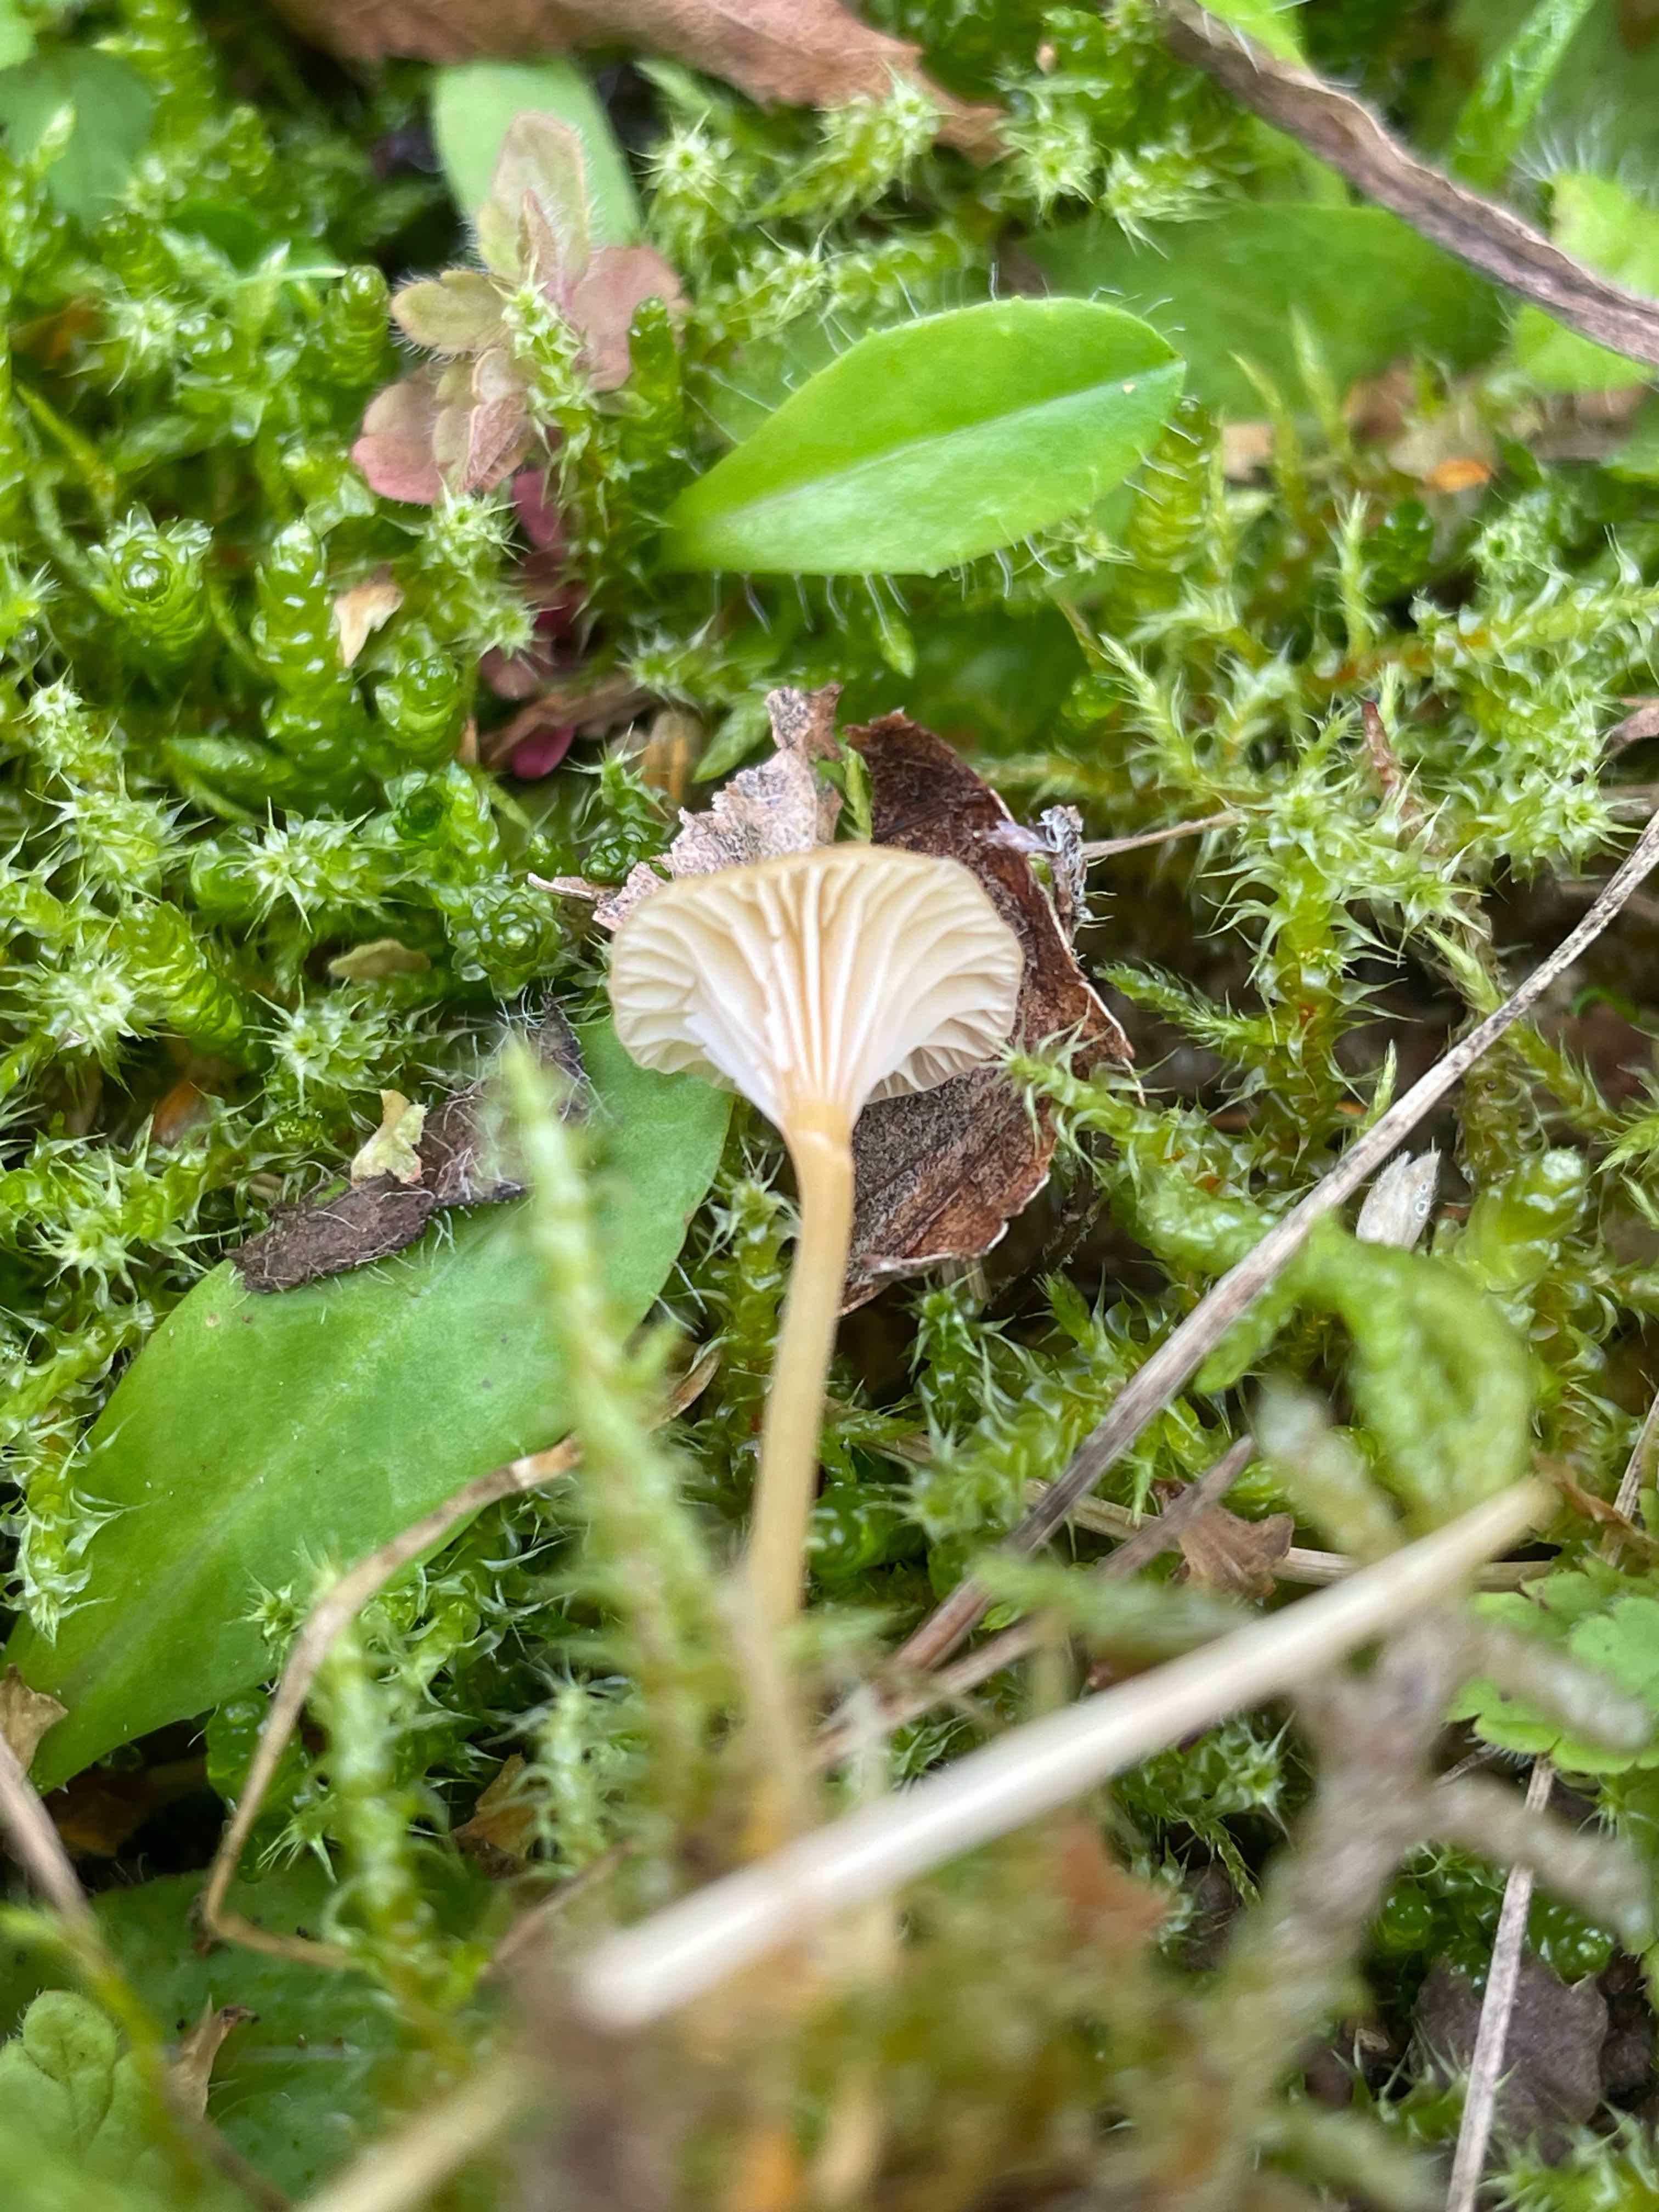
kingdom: Fungi
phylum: Basidiomycota
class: Agaricomycetes
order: Hymenochaetales
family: Rickenellaceae
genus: Rickenella
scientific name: Rickenella fibula
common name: orange mosnavlehat
